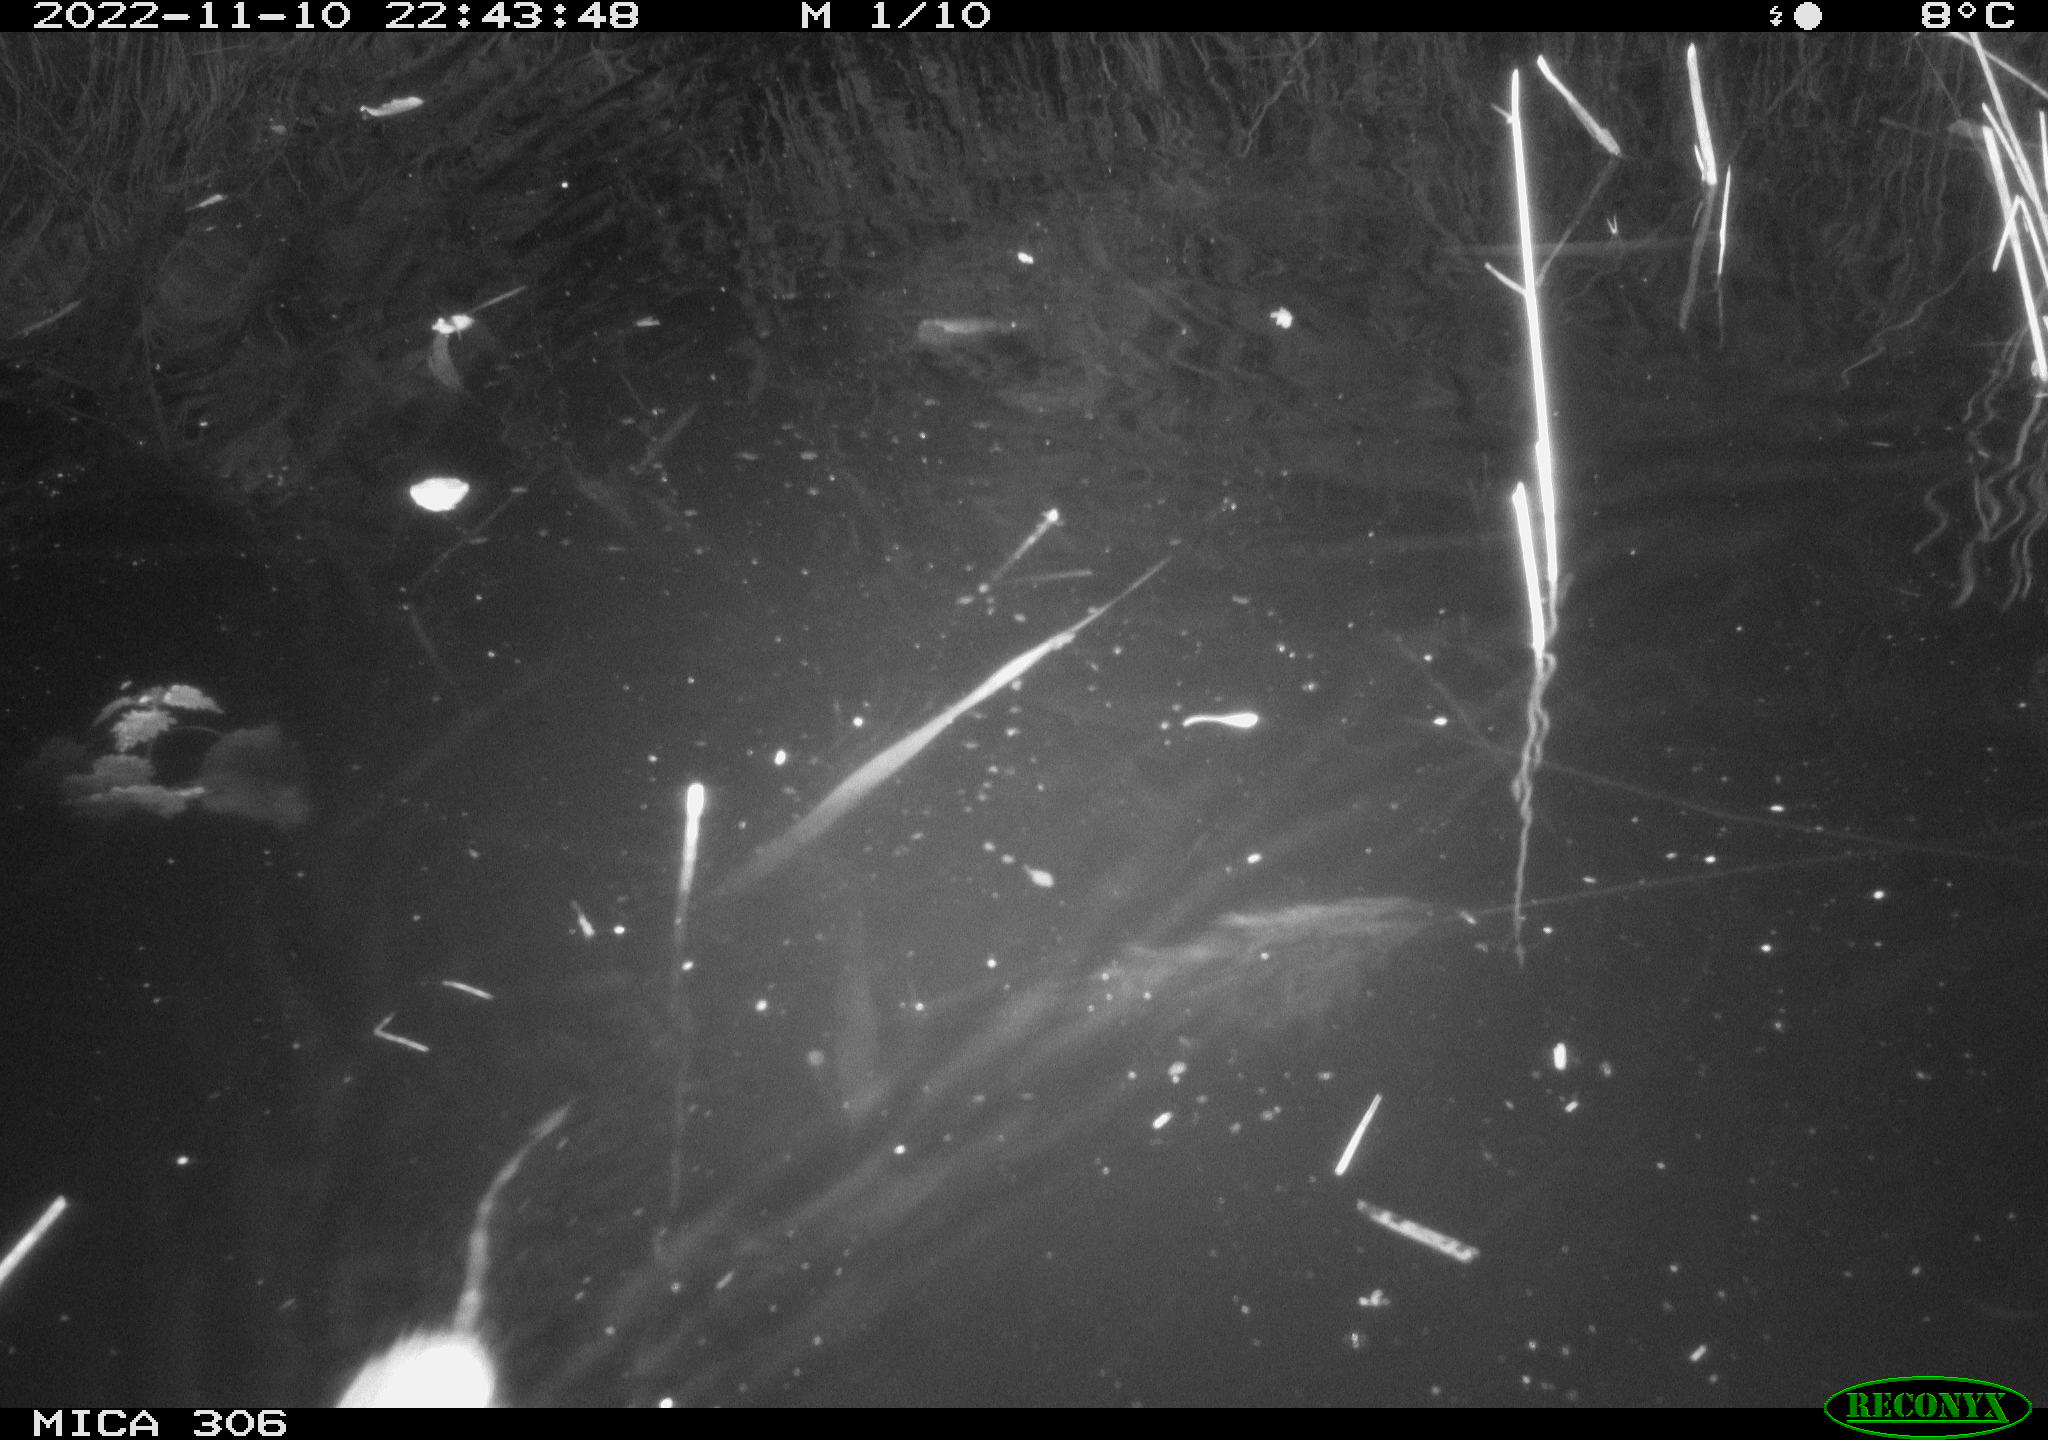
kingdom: Animalia
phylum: Chordata
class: Mammalia
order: Rodentia
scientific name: Rodentia
